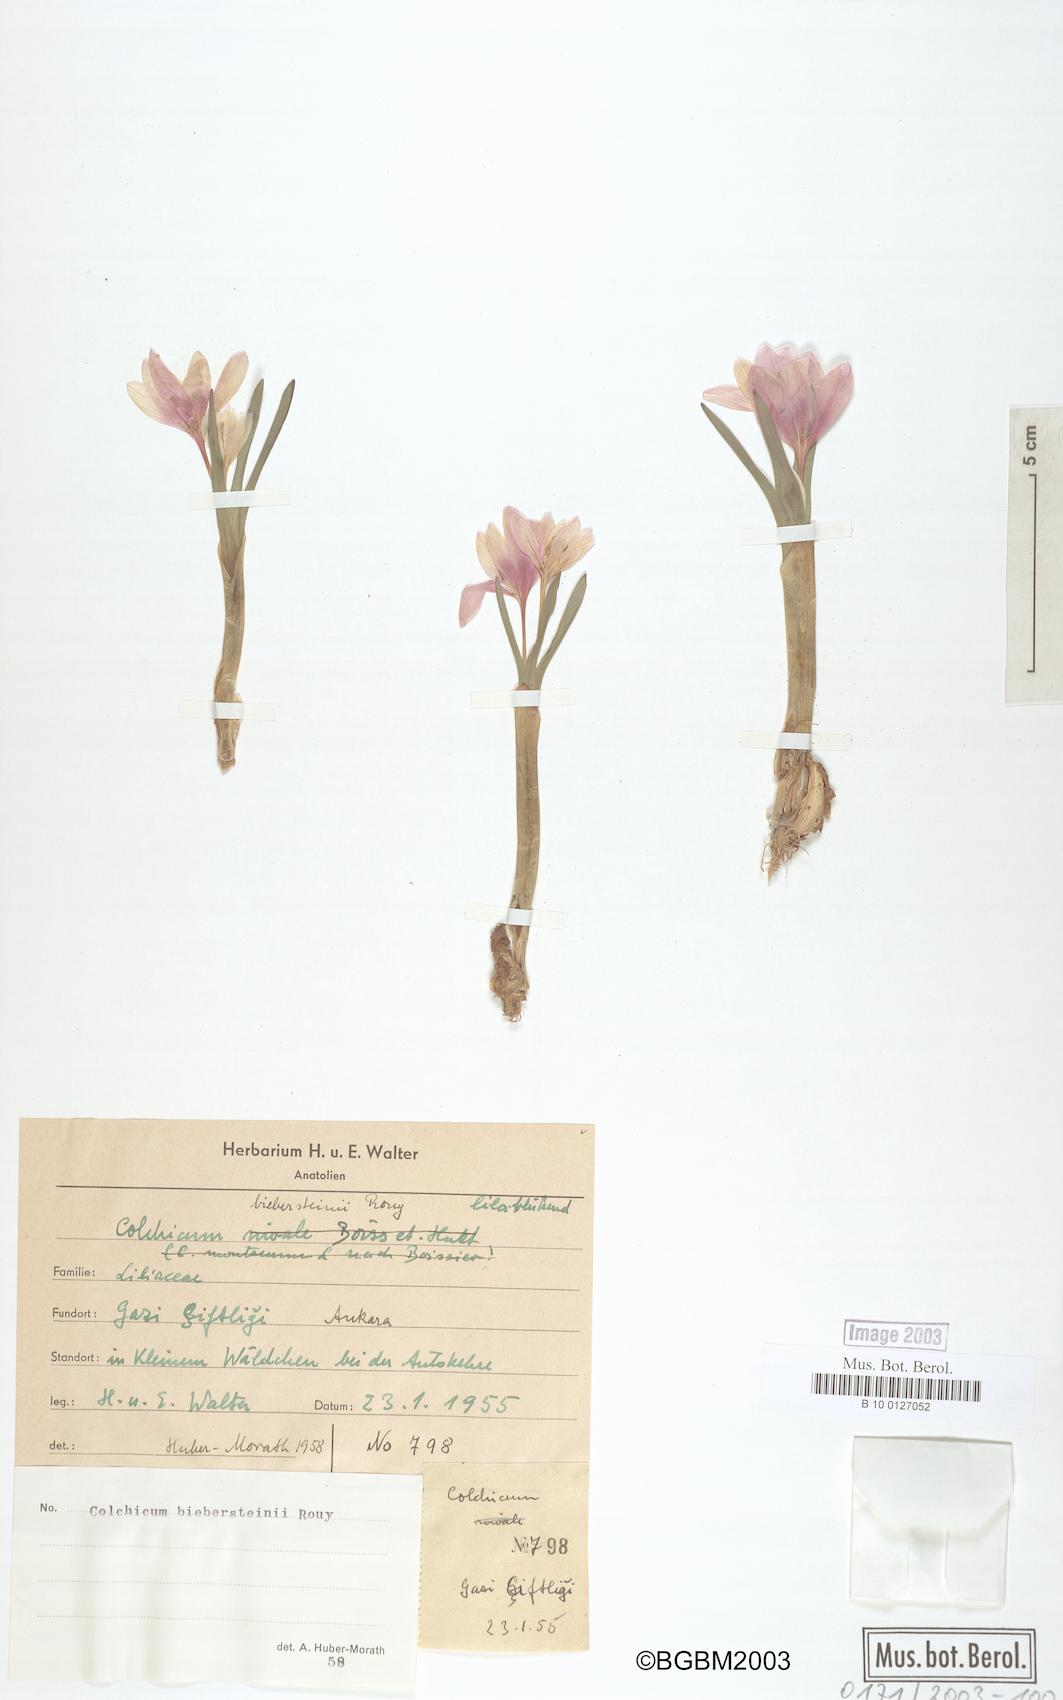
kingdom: Plantae
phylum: Tracheophyta
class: Liliopsida
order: Liliales
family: Colchicaceae
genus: Colchicum
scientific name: Colchicum triphyllum
